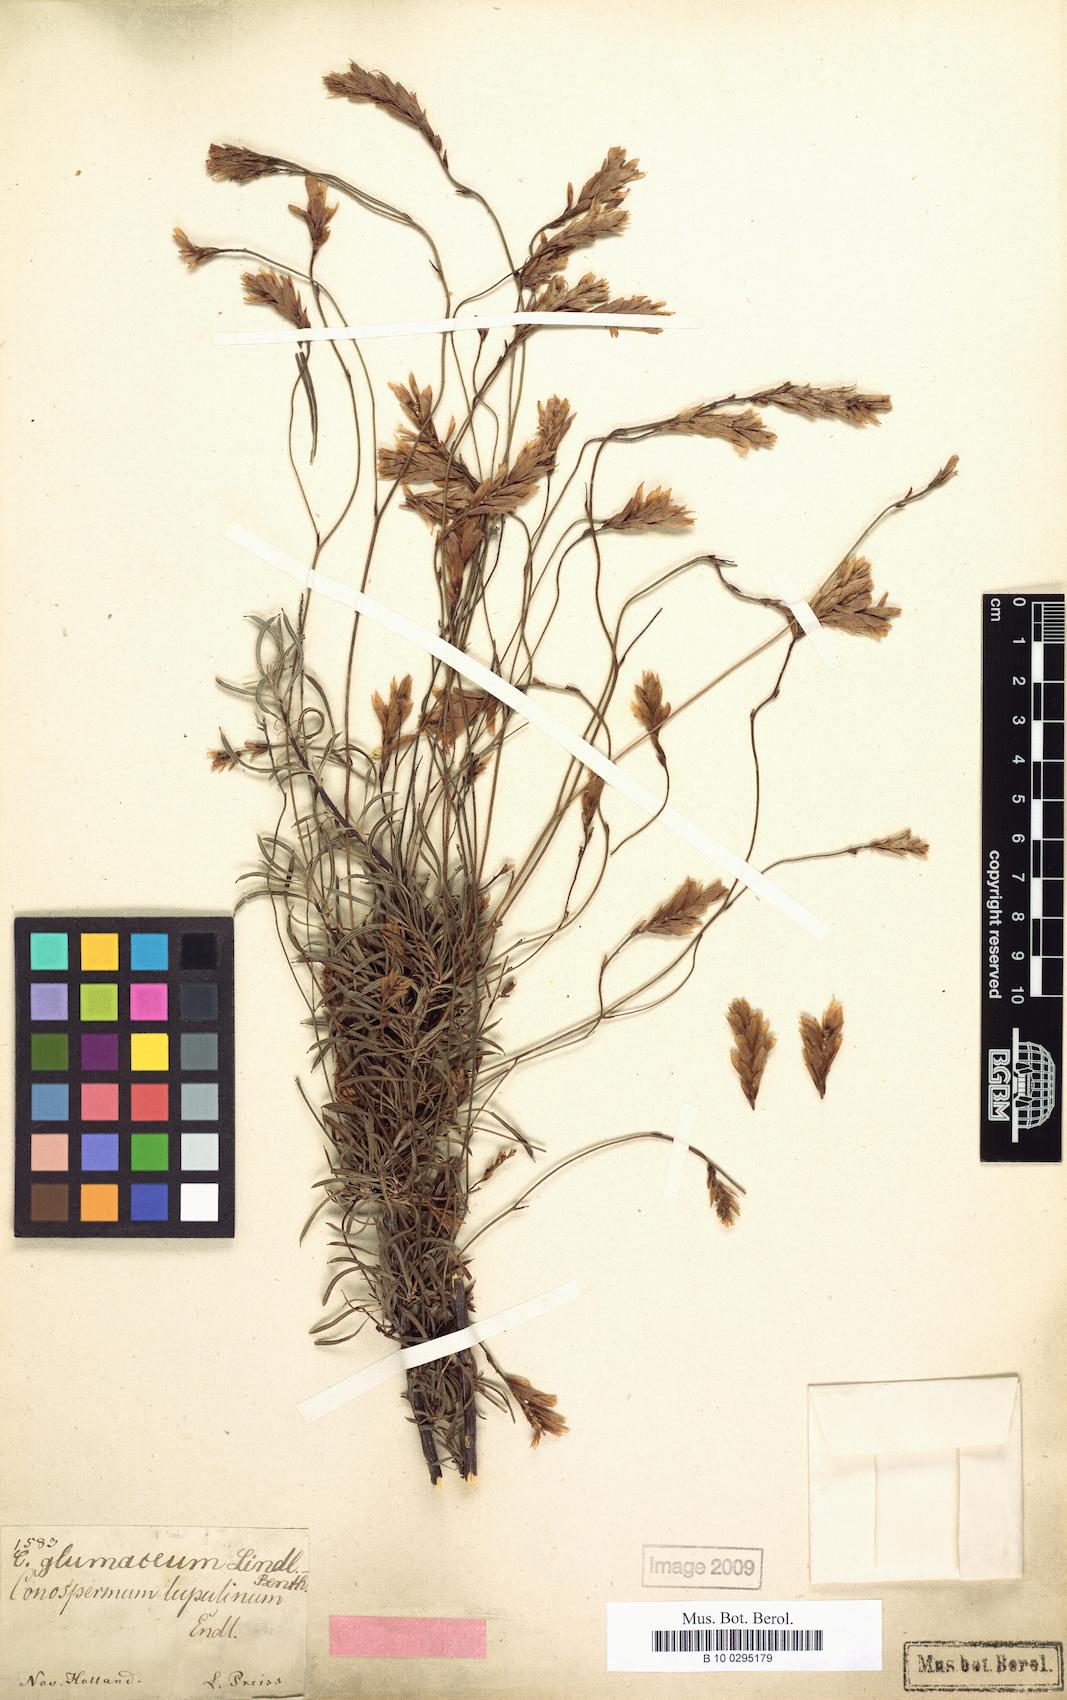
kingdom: Plantae
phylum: Tracheophyta
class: Magnoliopsida
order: Proteales
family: Proteaceae
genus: Conospermum
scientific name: Conospermum glumaceum
